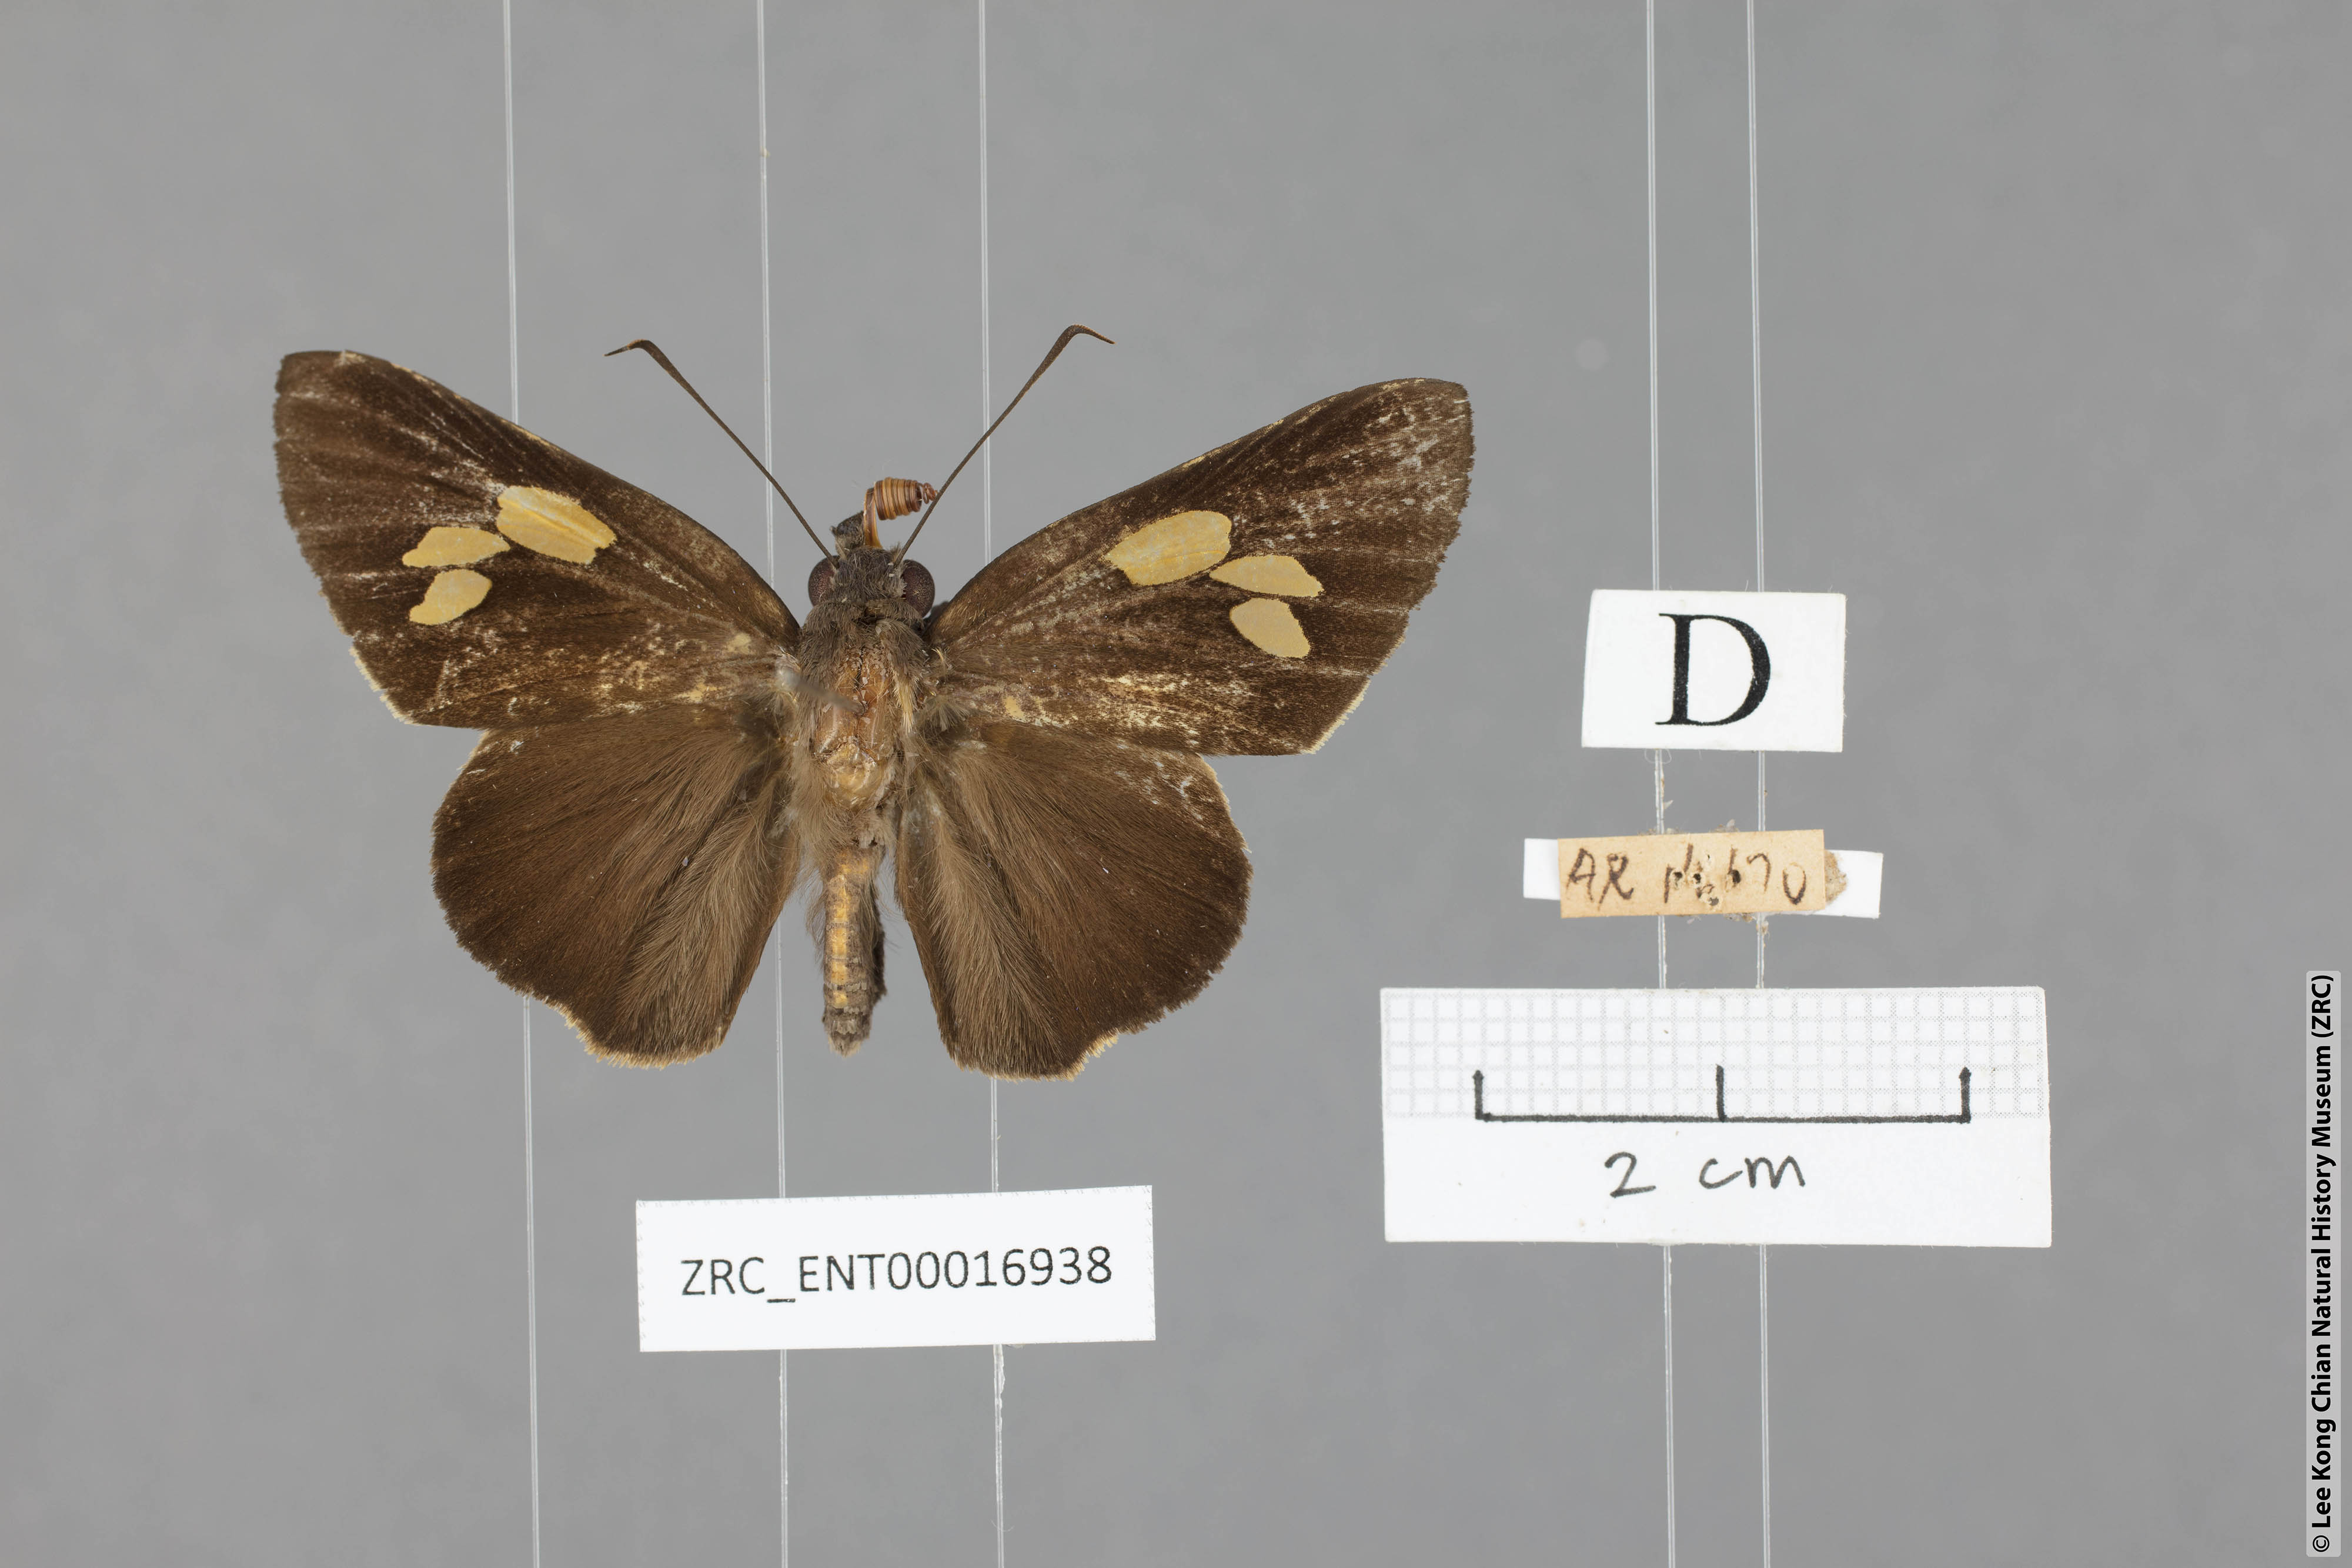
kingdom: Animalia
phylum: Arthropoda
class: Insecta
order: Lepidoptera
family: Hesperiidae
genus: Gangara
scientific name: Gangara sanguinocculus
